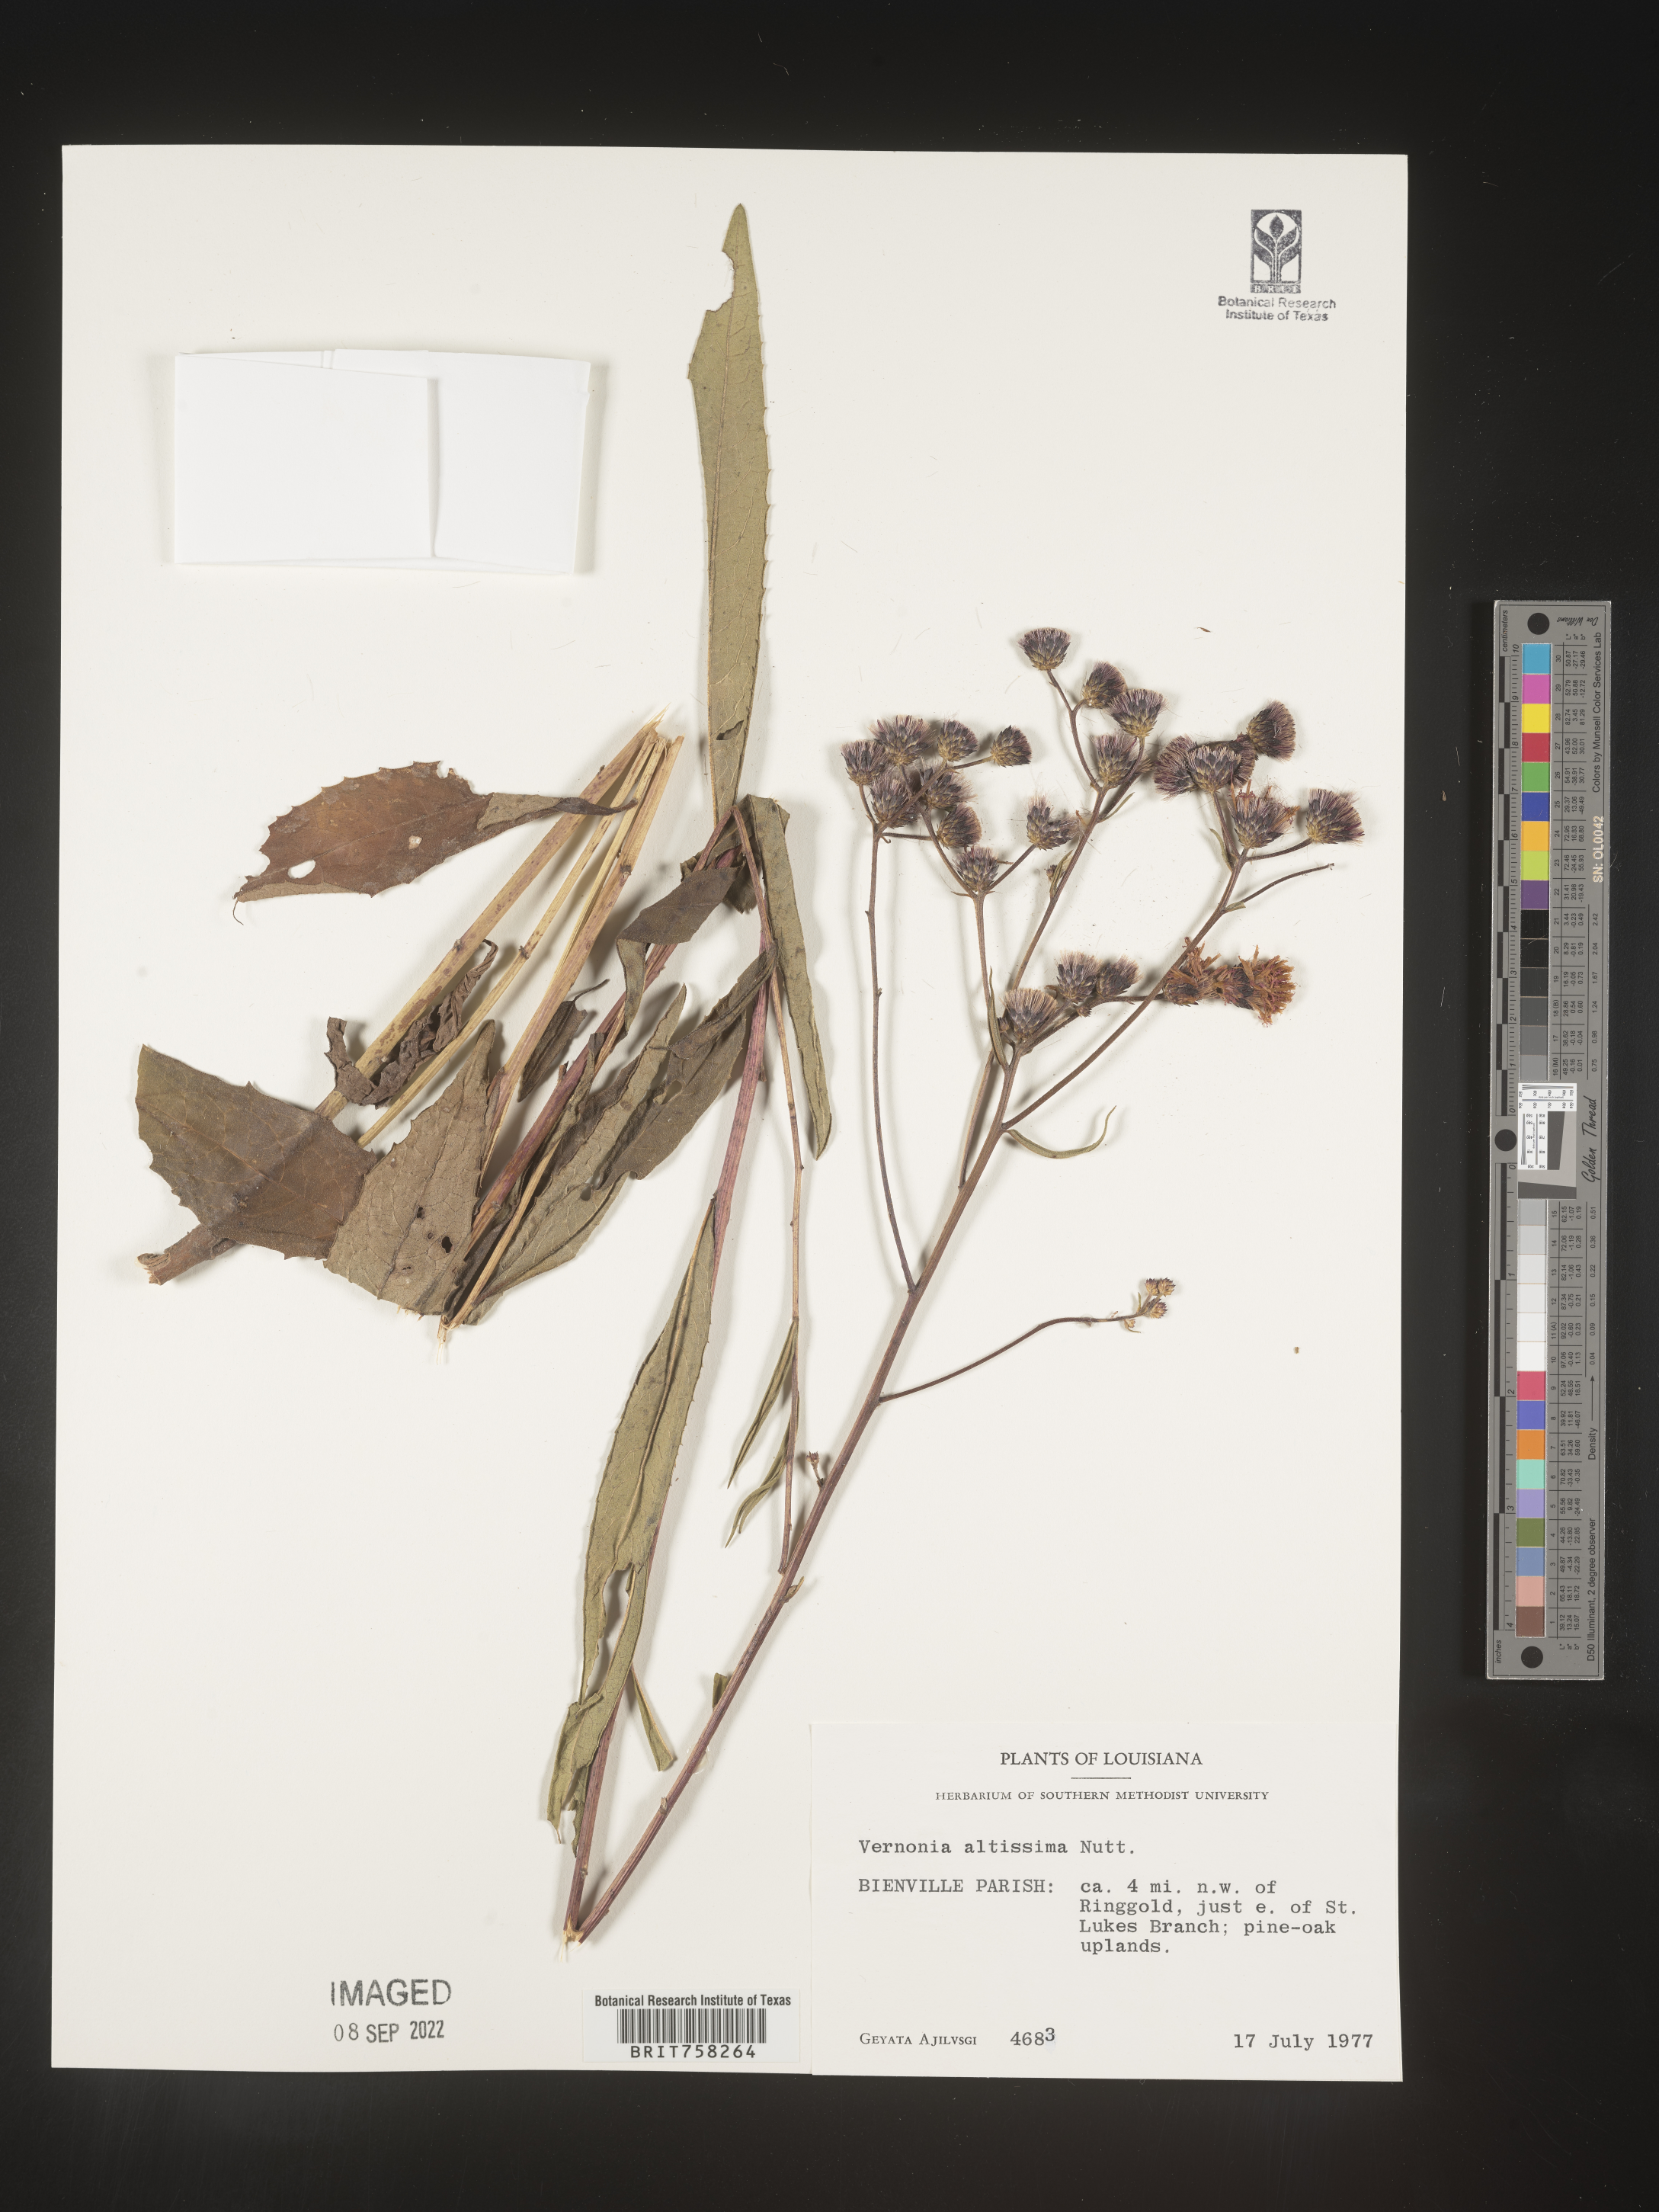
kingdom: Plantae
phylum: Tracheophyta
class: Magnoliopsida
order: Asterales
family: Asteraceae
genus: Vernonia
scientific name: Vernonia gigantea
